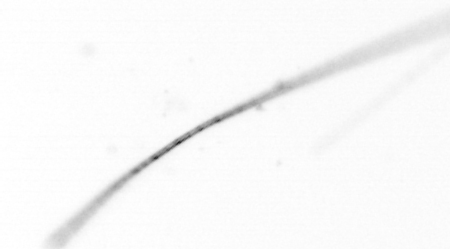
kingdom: Chromista
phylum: Ochrophyta
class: Bacillariophyceae
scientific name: Bacillariophyceae
